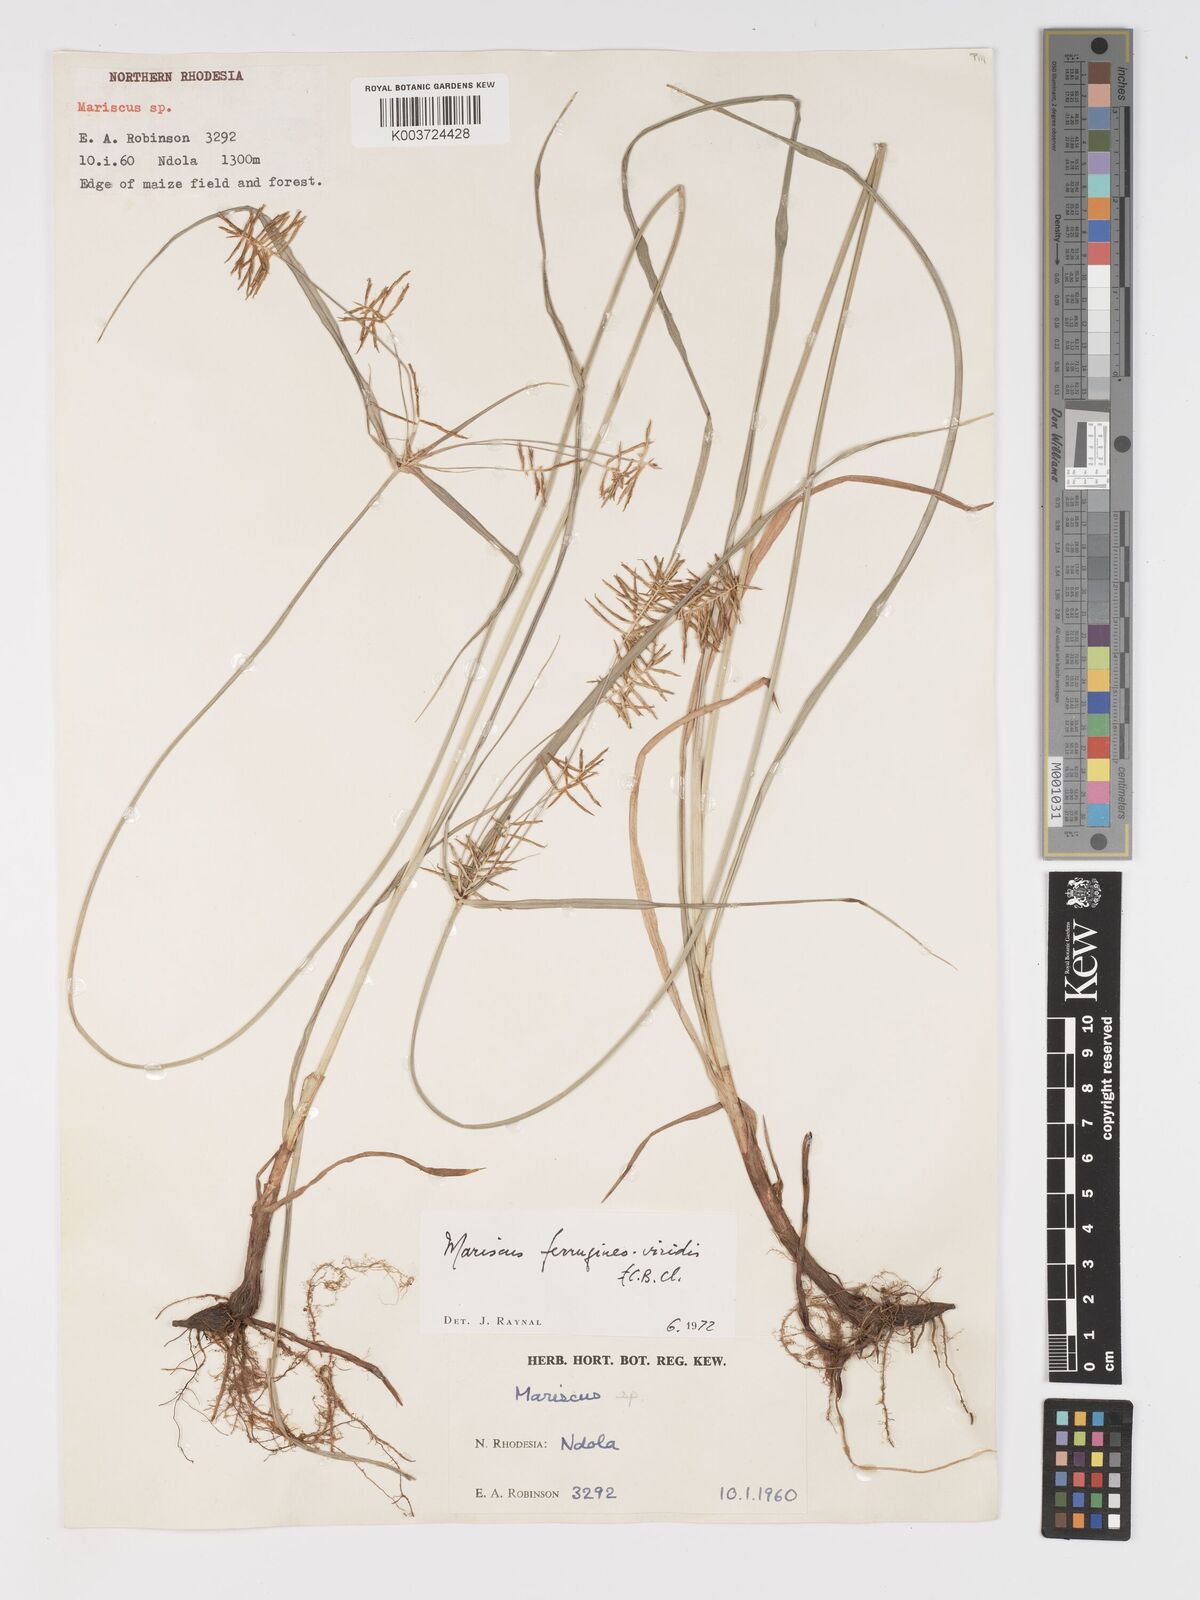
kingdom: Plantae
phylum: Tracheophyta
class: Liliopsida
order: Poales
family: Cyperaceae
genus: Cyperus
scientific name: Cyperus ferrugineoviridis
